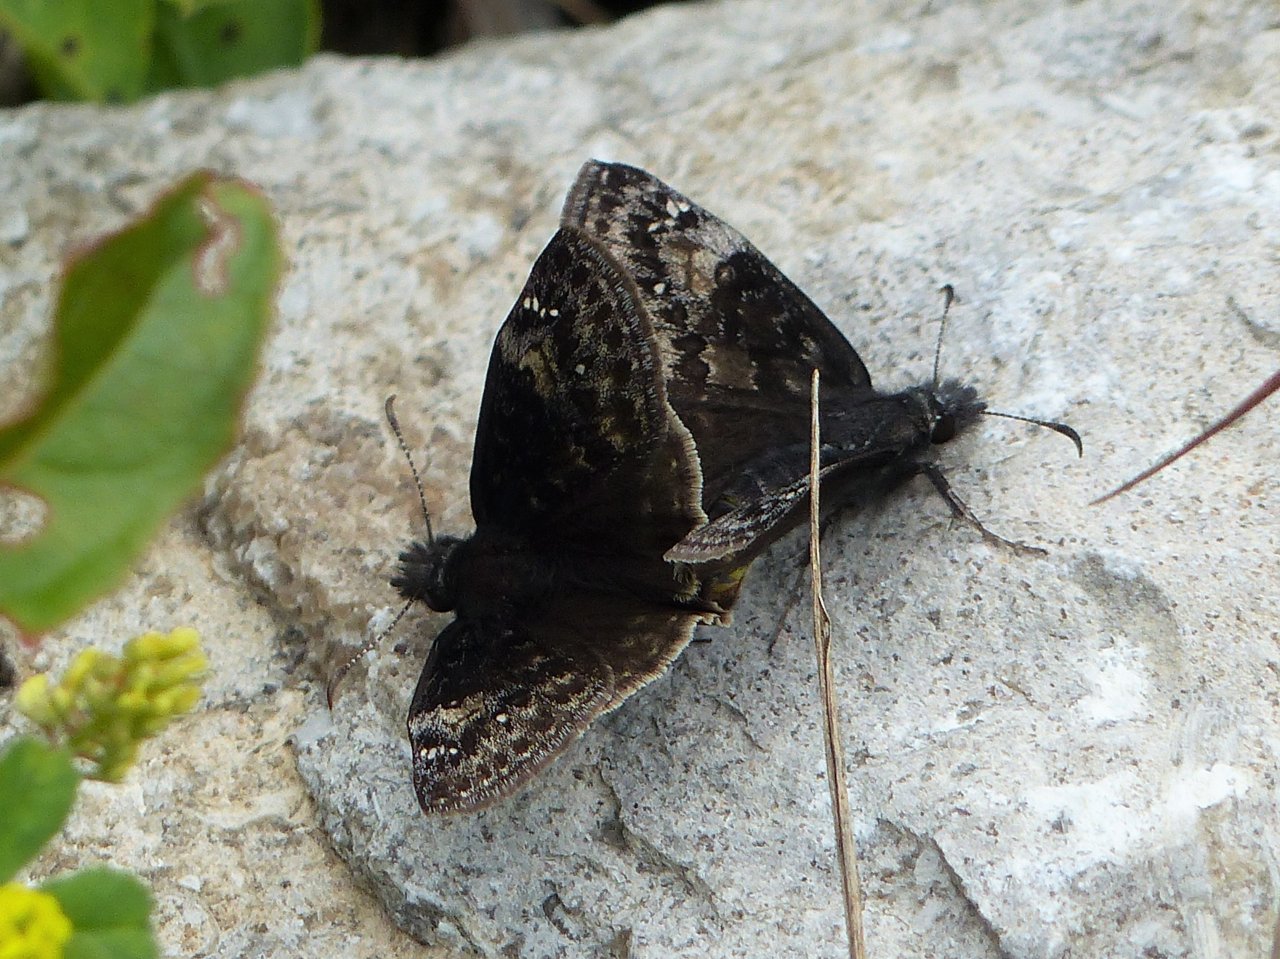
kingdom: Animalia
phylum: Arthropoda
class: Insecta
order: Lepidoptera
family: Hesperiidae
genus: Gesta
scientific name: Gesta
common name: Wild Indigo Duskywing
